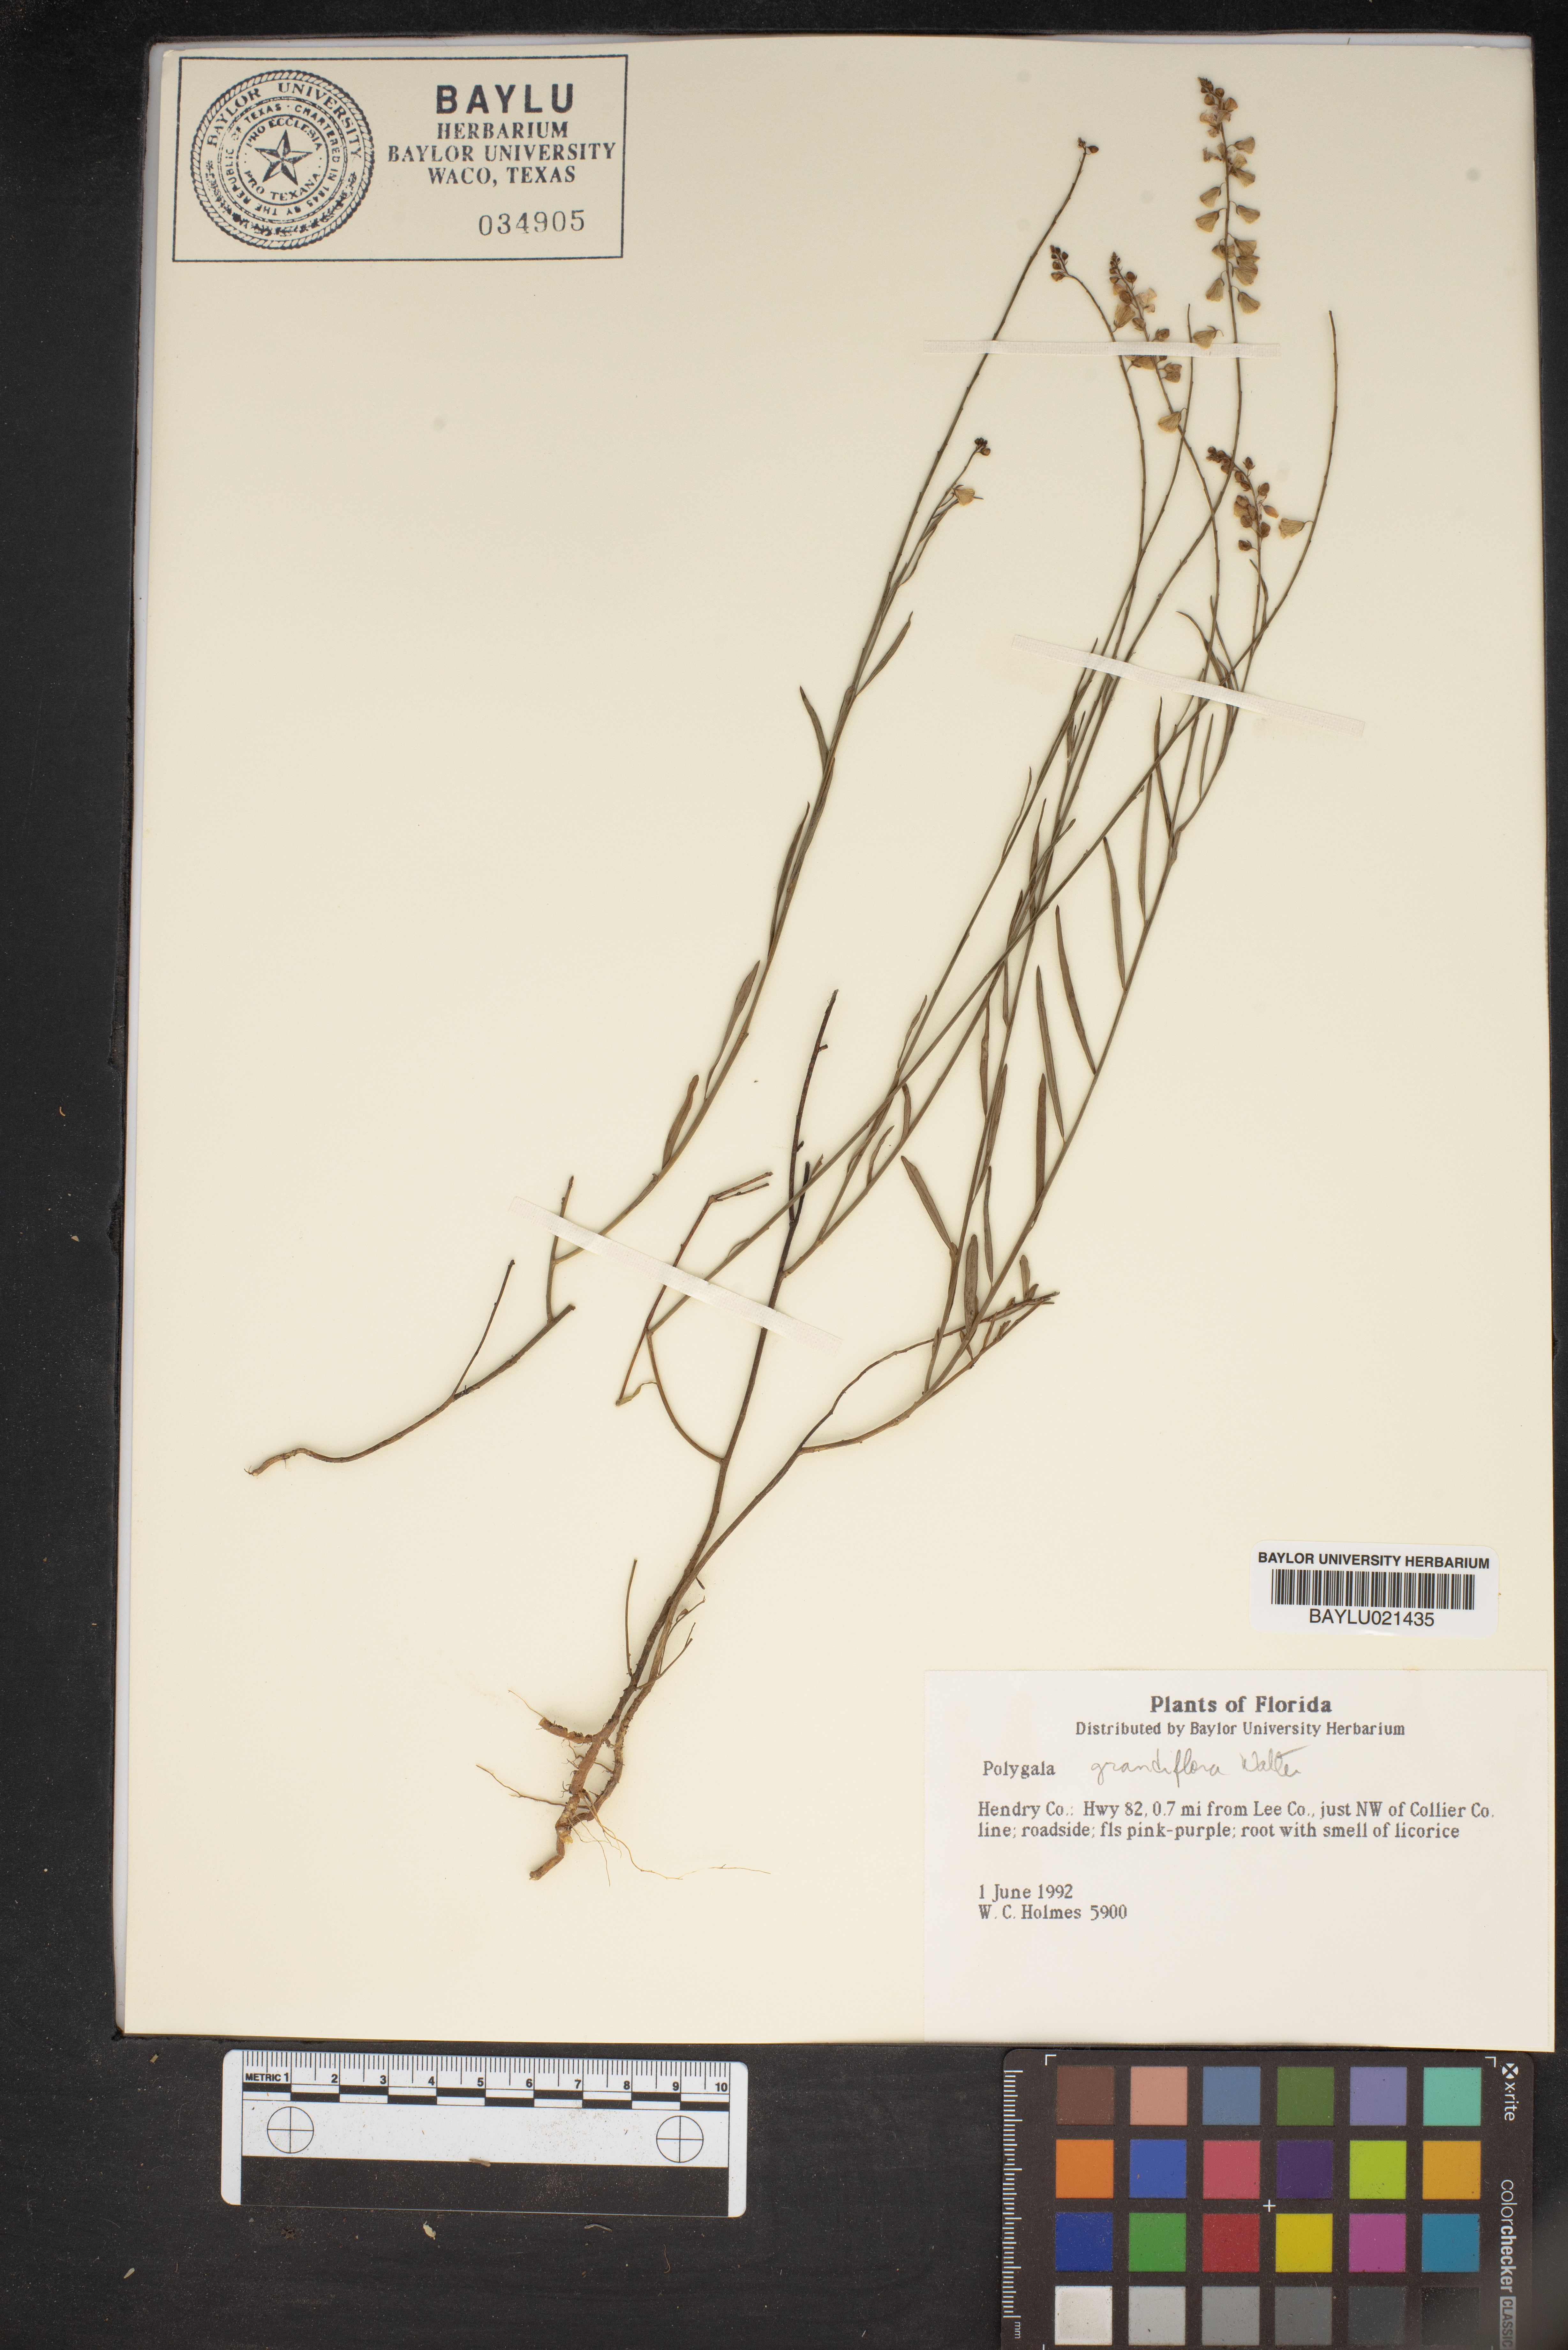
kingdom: Plantae
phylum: Tracheophyta
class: Magnoliopsida
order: Fabales
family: Polygalaceae
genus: Asemeia
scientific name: Asemeia grandiflora
